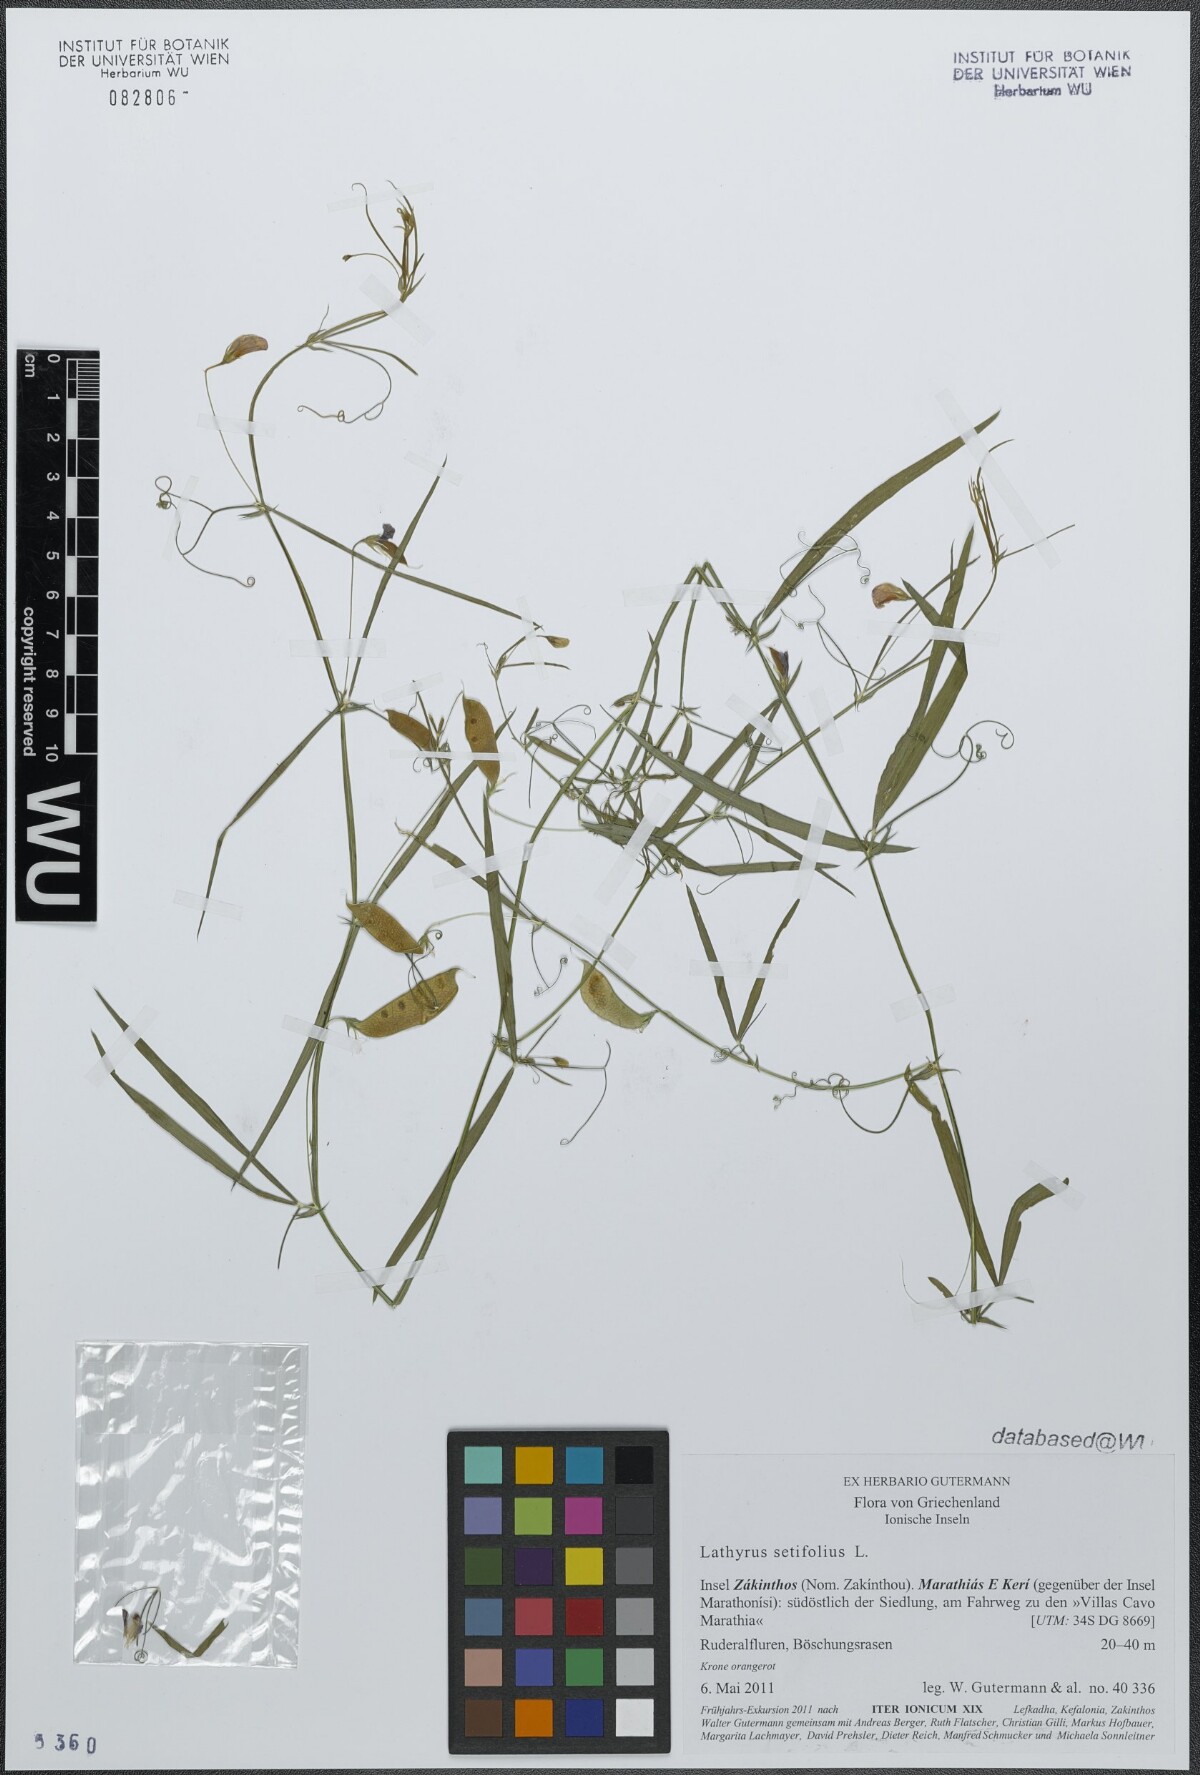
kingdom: Plantae
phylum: Tracheophyta
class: Magnoliopsida
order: Fabales
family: Fabaceae
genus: Lathyrus
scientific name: Lathyrus setifolius
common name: Brown vetchling
